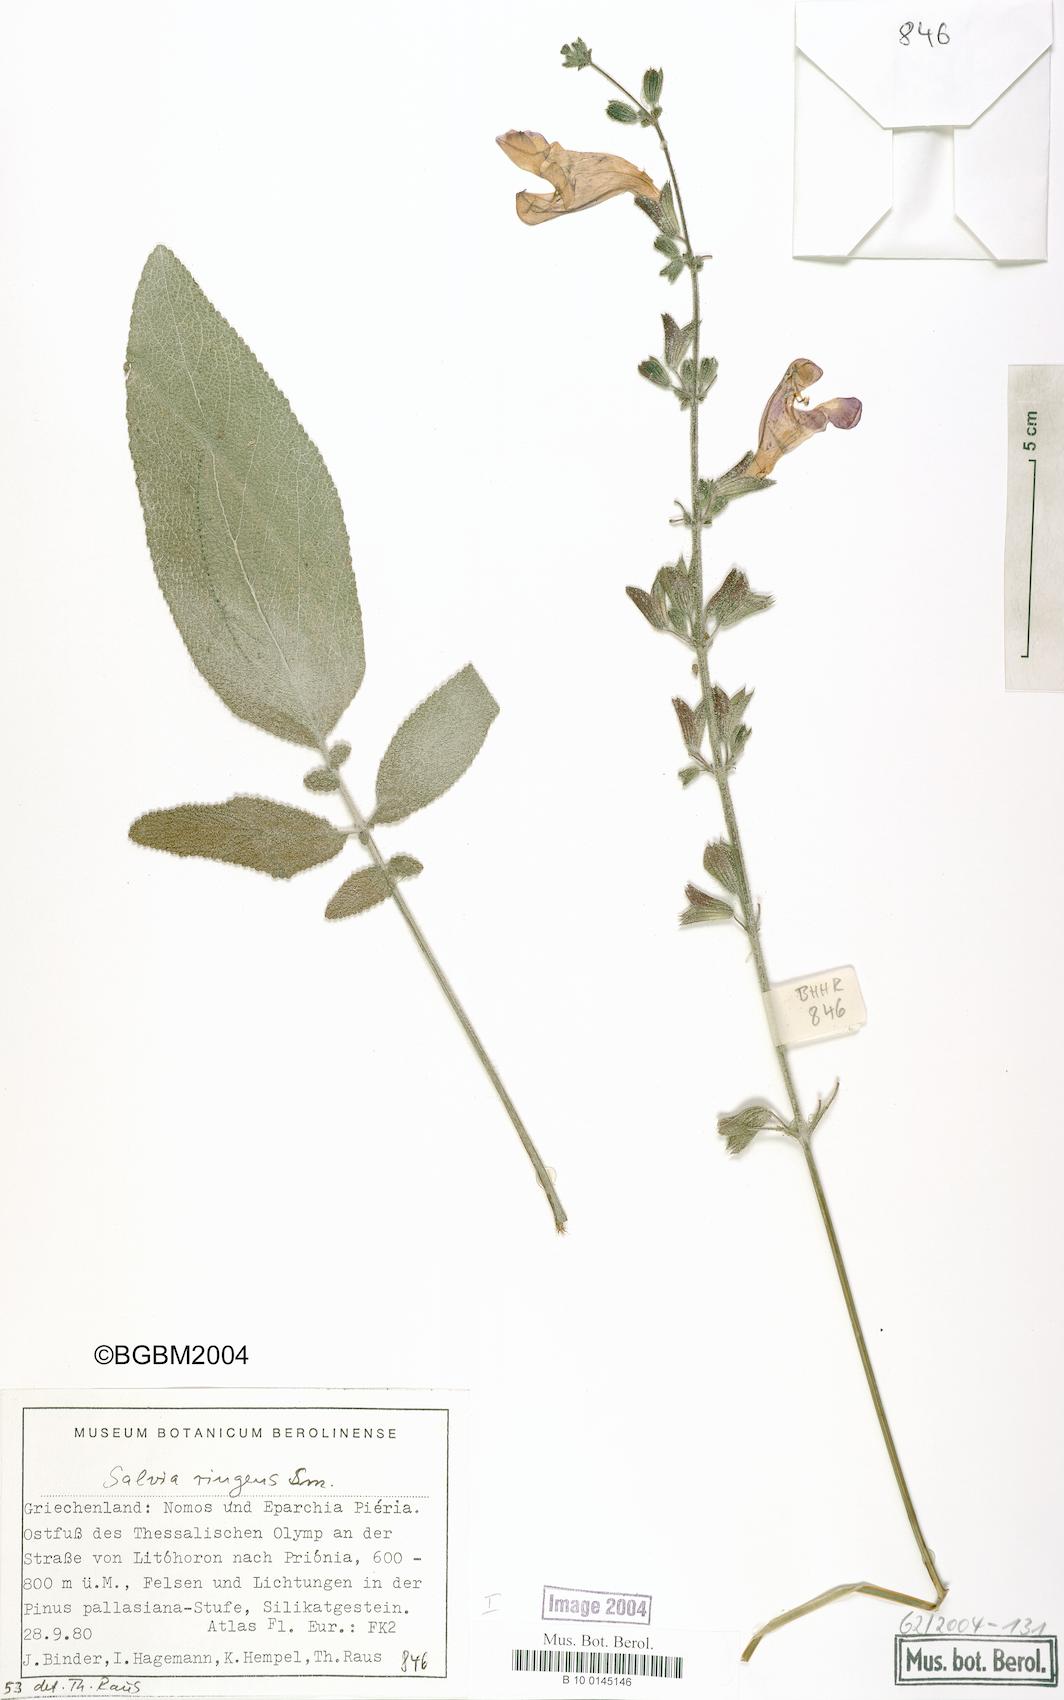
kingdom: Plantae
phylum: Tracheophyta
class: Magnoliopsida
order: Lamiales
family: Lamiaceae
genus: Salvia
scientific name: Salvia ringens
